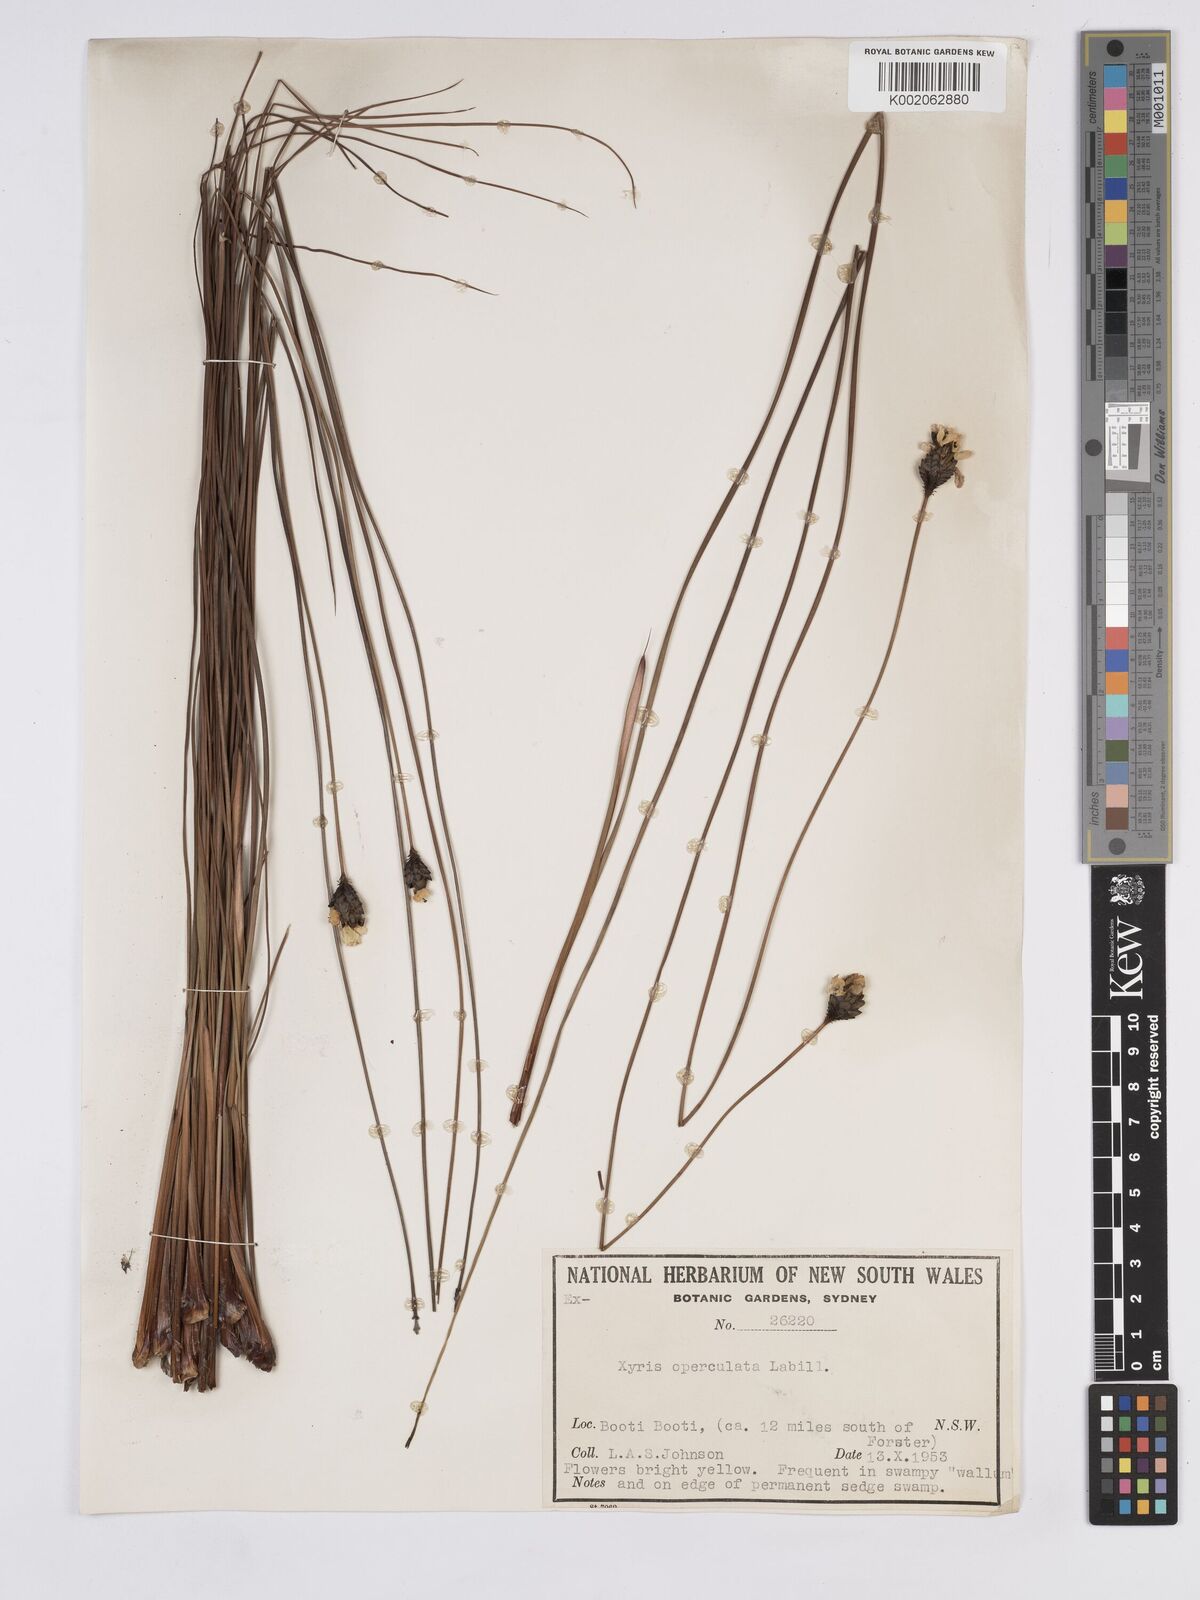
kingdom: Plantae
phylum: Tracheophyta
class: Liliopsida
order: Poales
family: Xyridaceae
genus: Xyris
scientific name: Xyris operculata
